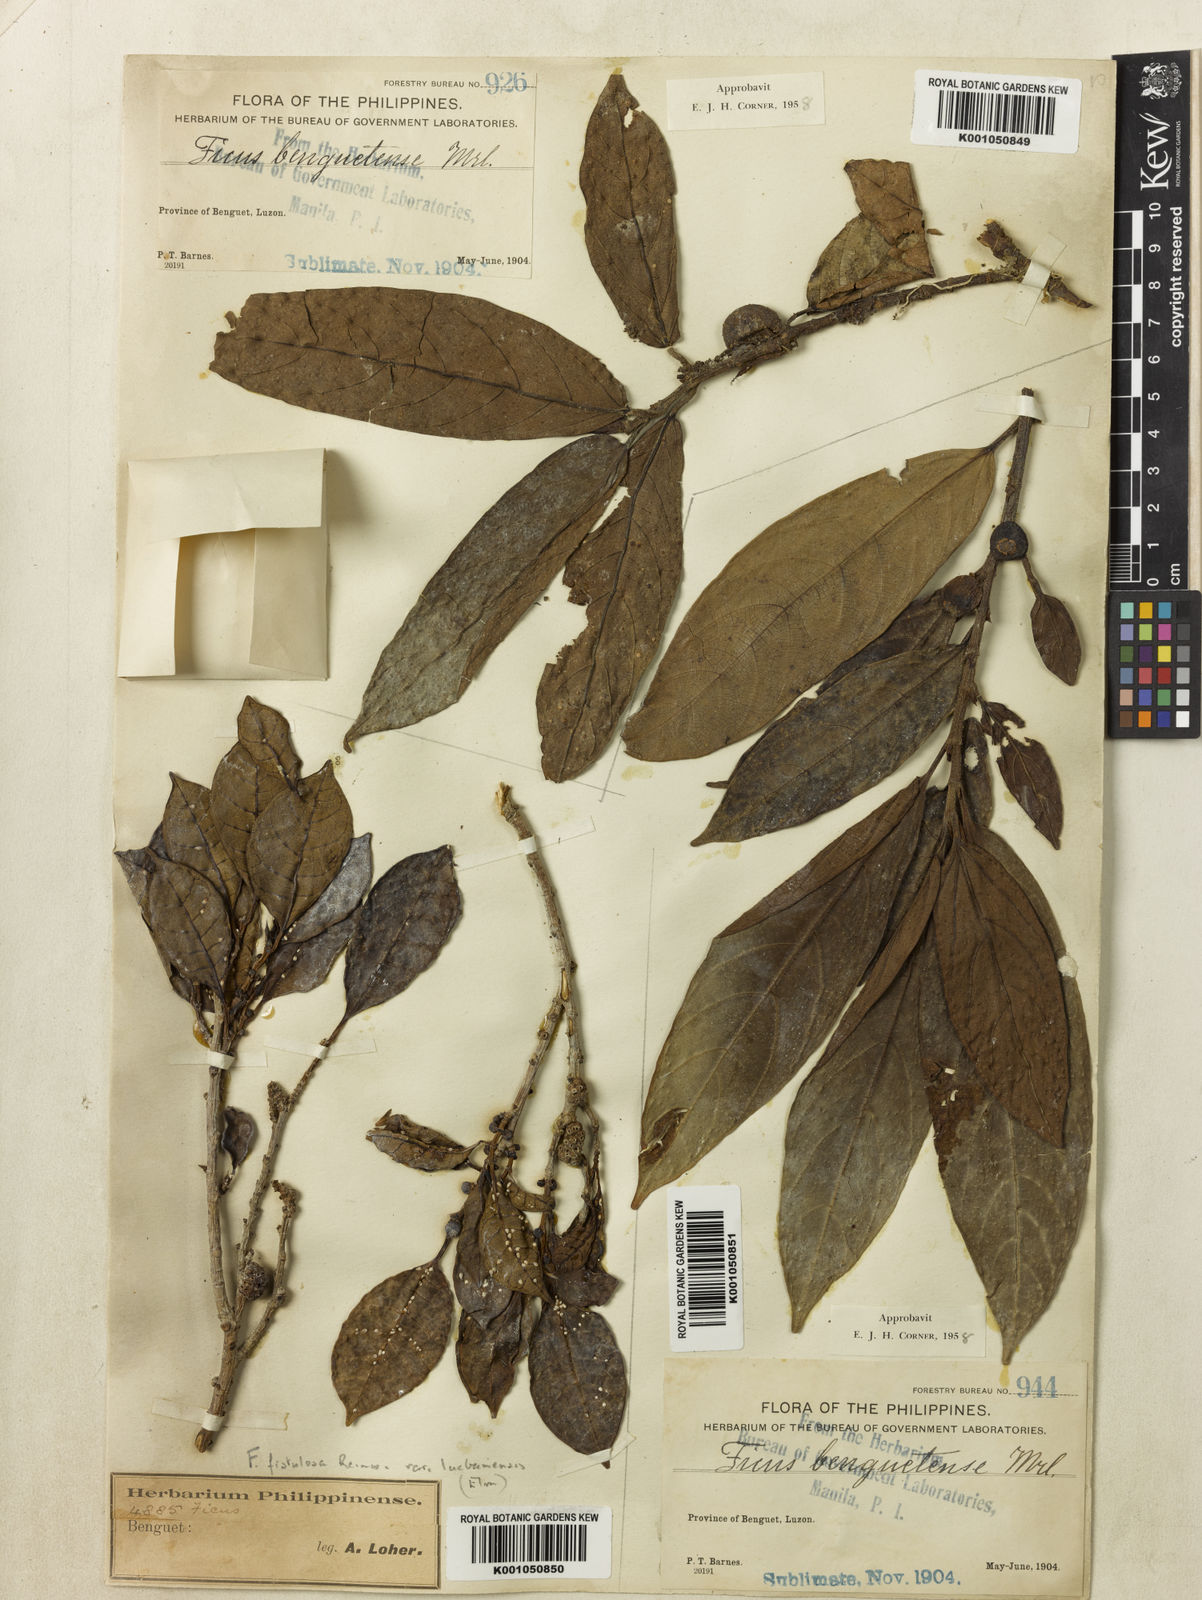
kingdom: Plantae
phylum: Tracheophyta
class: Magnoliopsida
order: Rosales
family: Moraceae
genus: Ficus
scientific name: Ficus benguetensis
